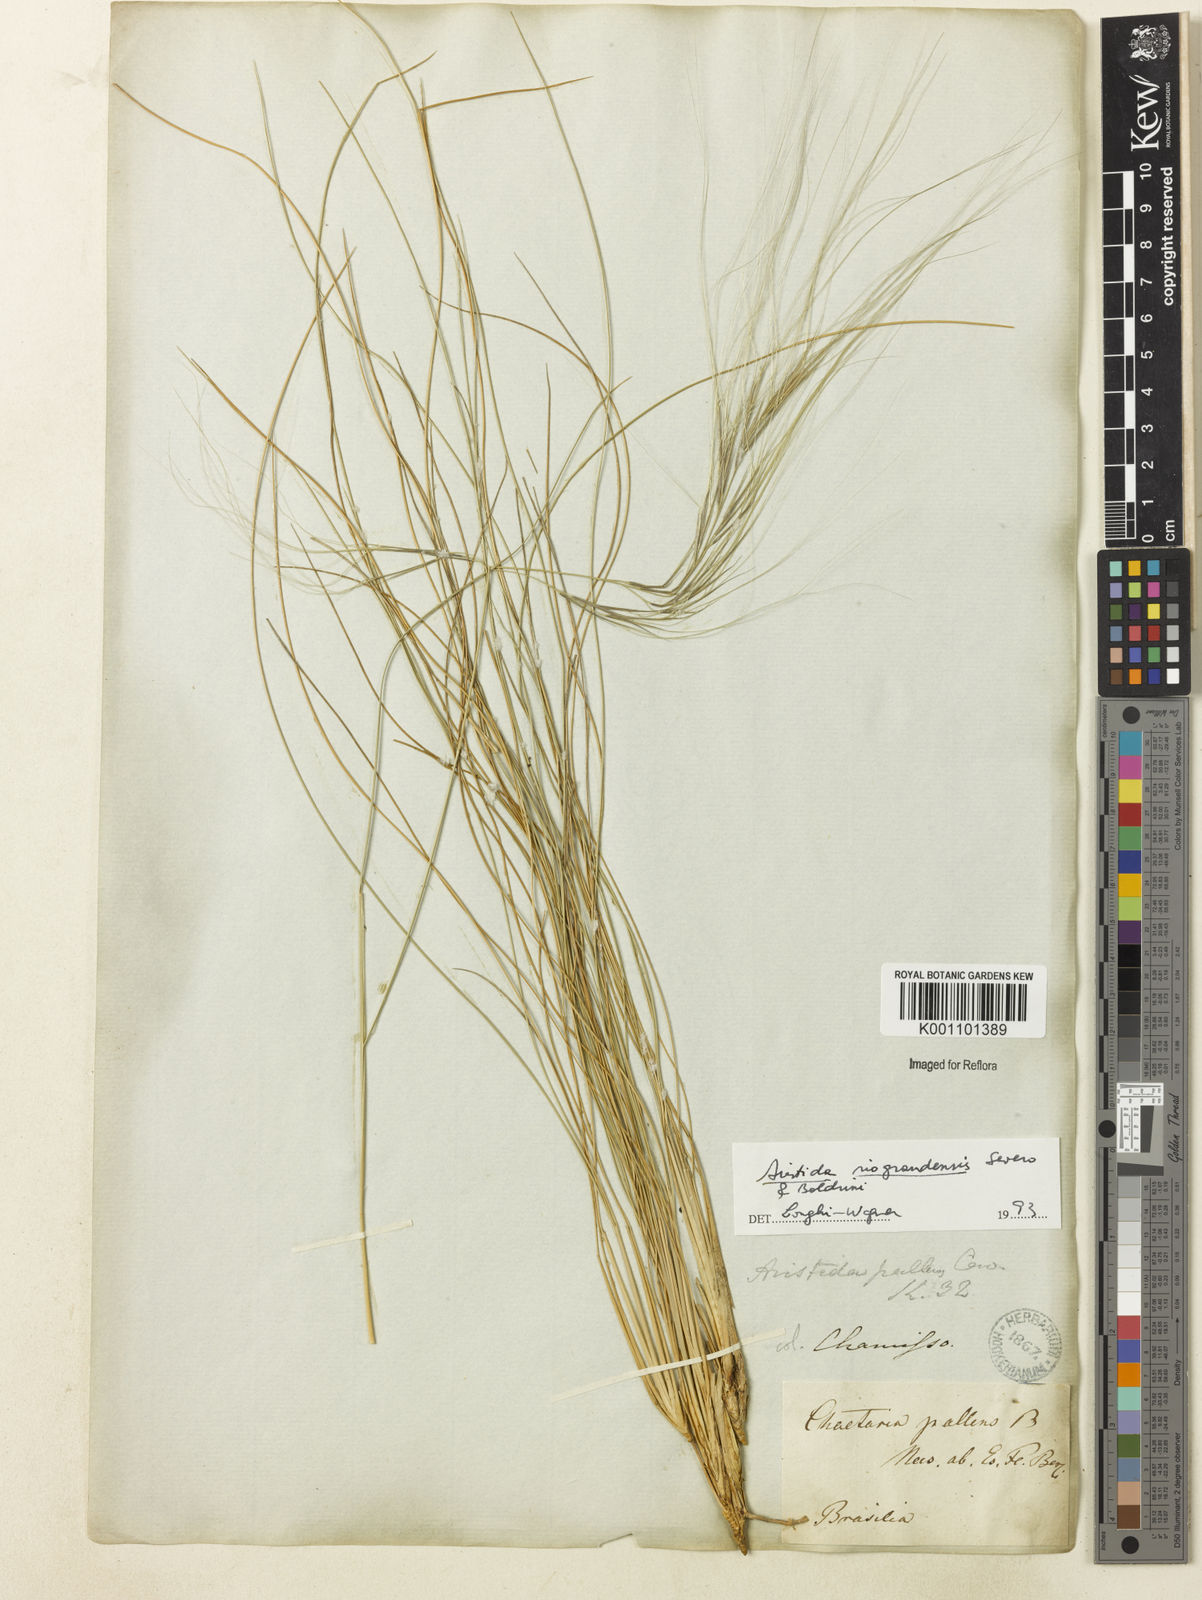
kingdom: Plantae
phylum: Tracheophyta
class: Liliopsida
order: Poales
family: Poaceae
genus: Aristida
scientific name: Aristida riograndensis
